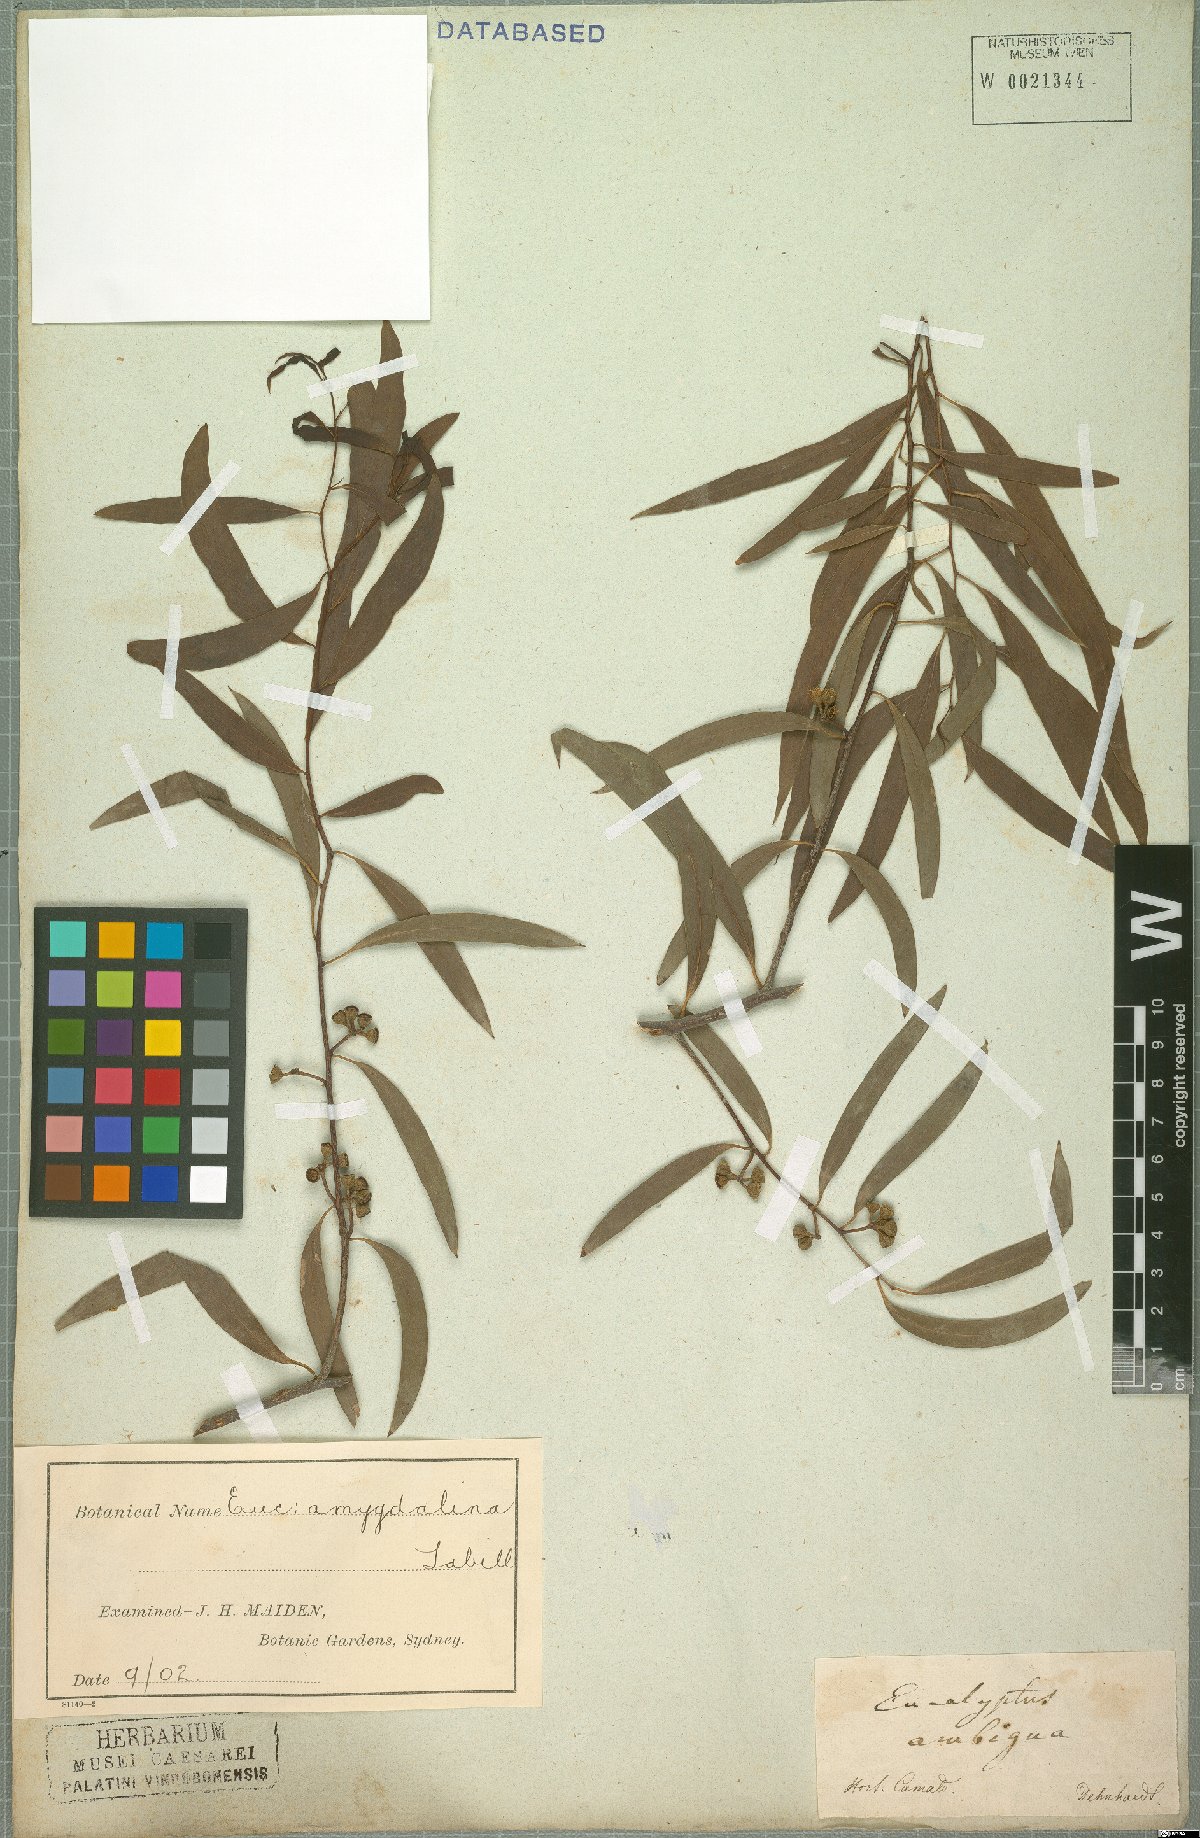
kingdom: Plantae
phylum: Tracheophyta
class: Magnoliopsida
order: Myrtales
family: Myrtaceae
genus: Eucalyptus
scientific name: Eucalyptus amygdalina
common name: Black peppermint
